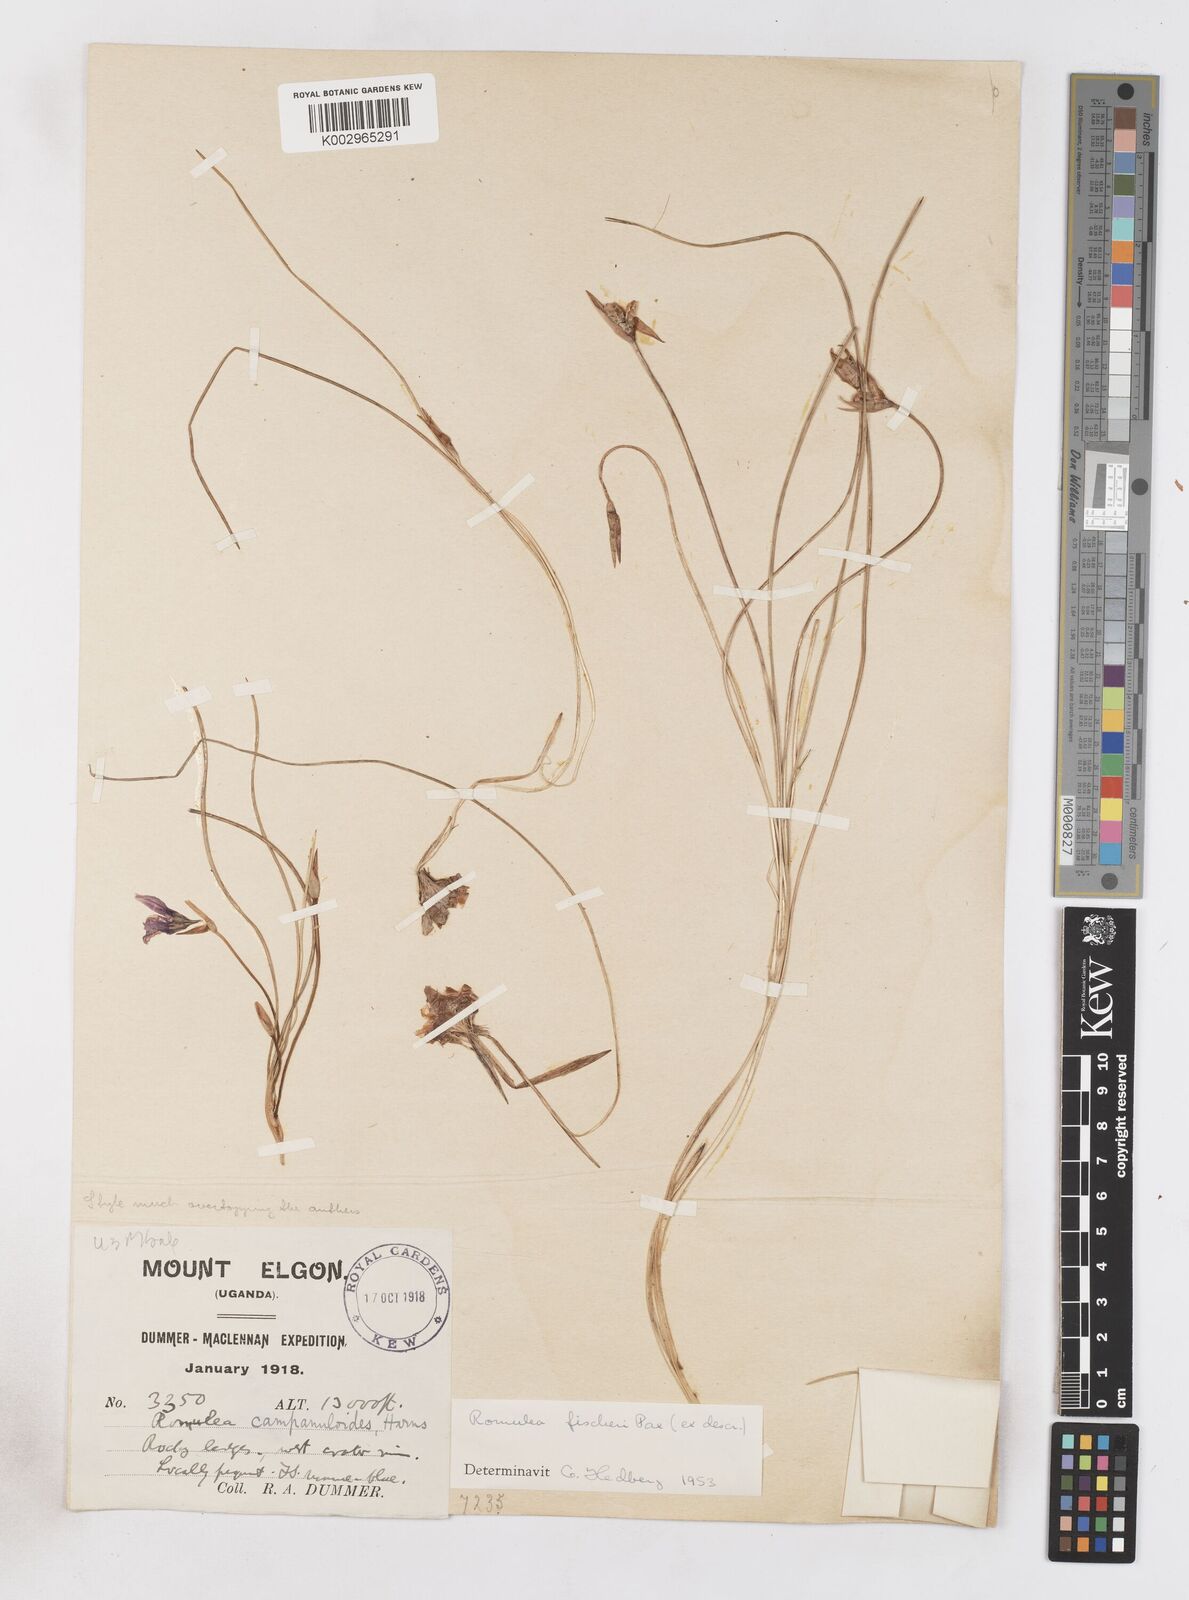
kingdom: Plantae
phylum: Tracheophyta
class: Liliopsida
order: Asparagales
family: Iridaceae
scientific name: Iridaceae
